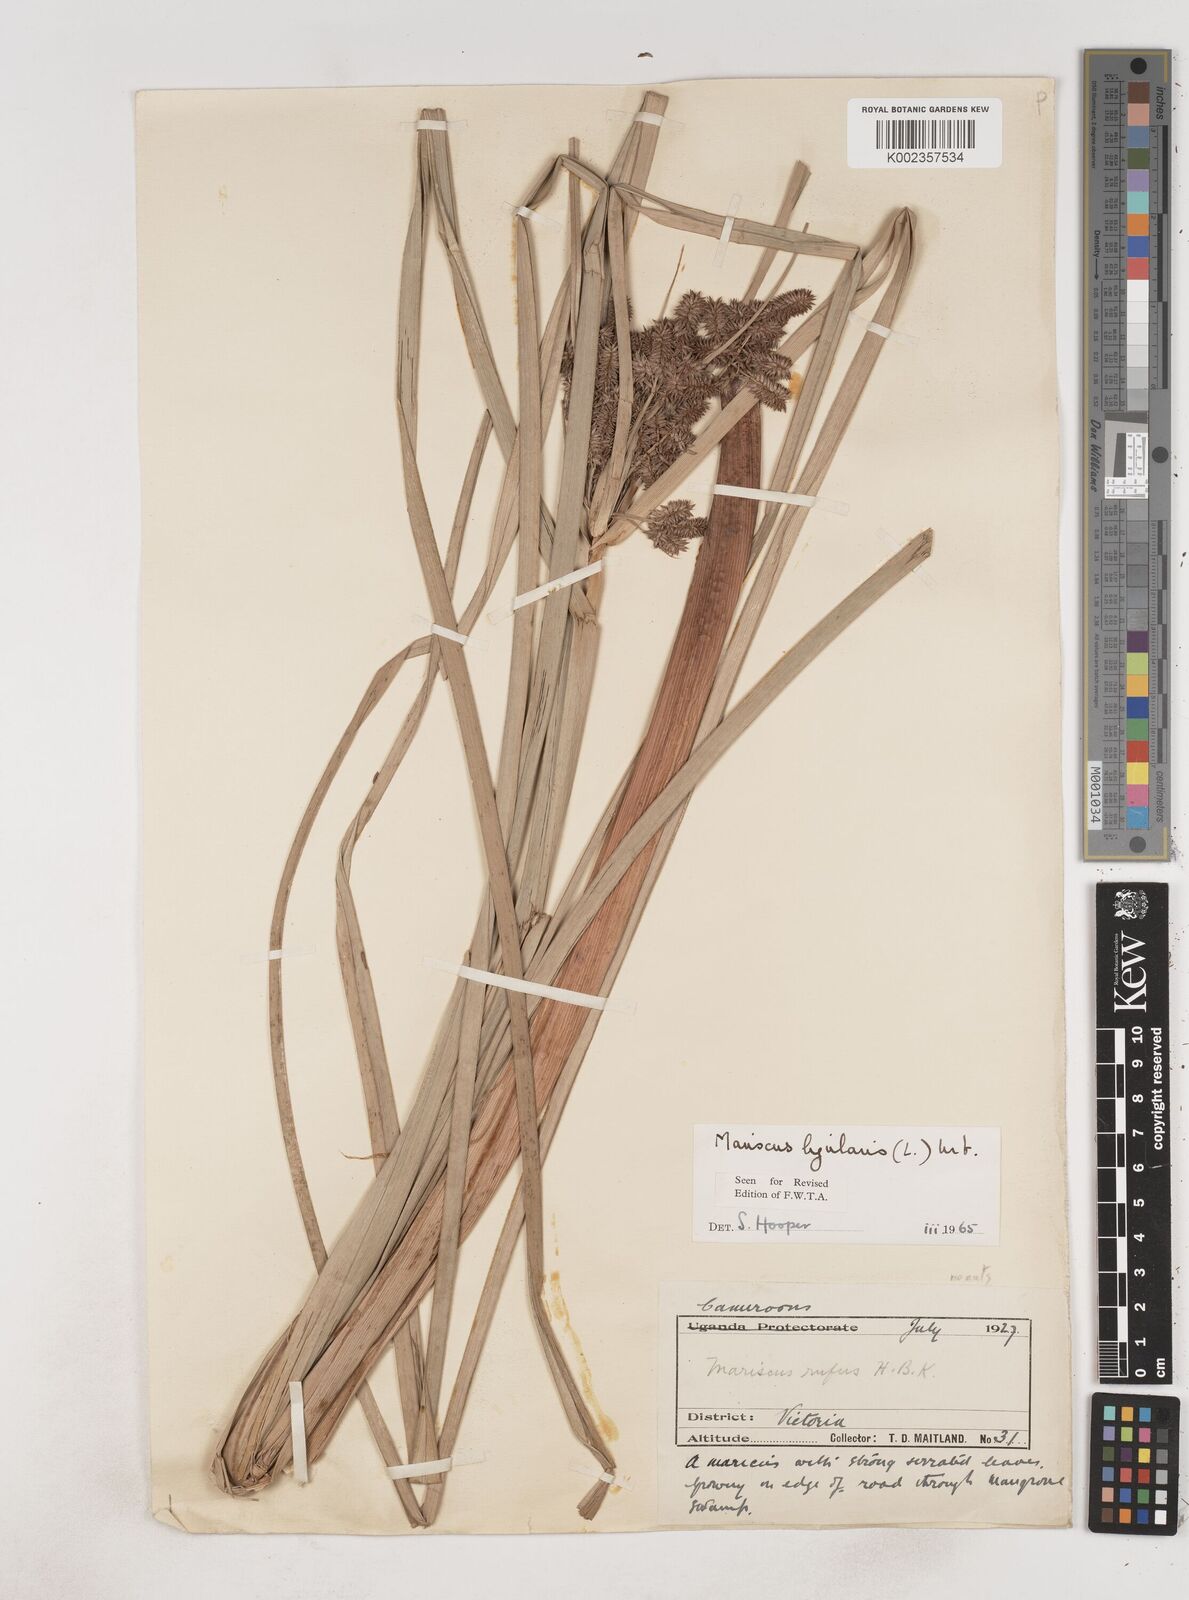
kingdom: Plantae
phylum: Tracheophyta
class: Liliopsida
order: Poales
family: Cyperaceae
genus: Cyperus
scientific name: Cyperus ligularis
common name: Swamp flat sedge
